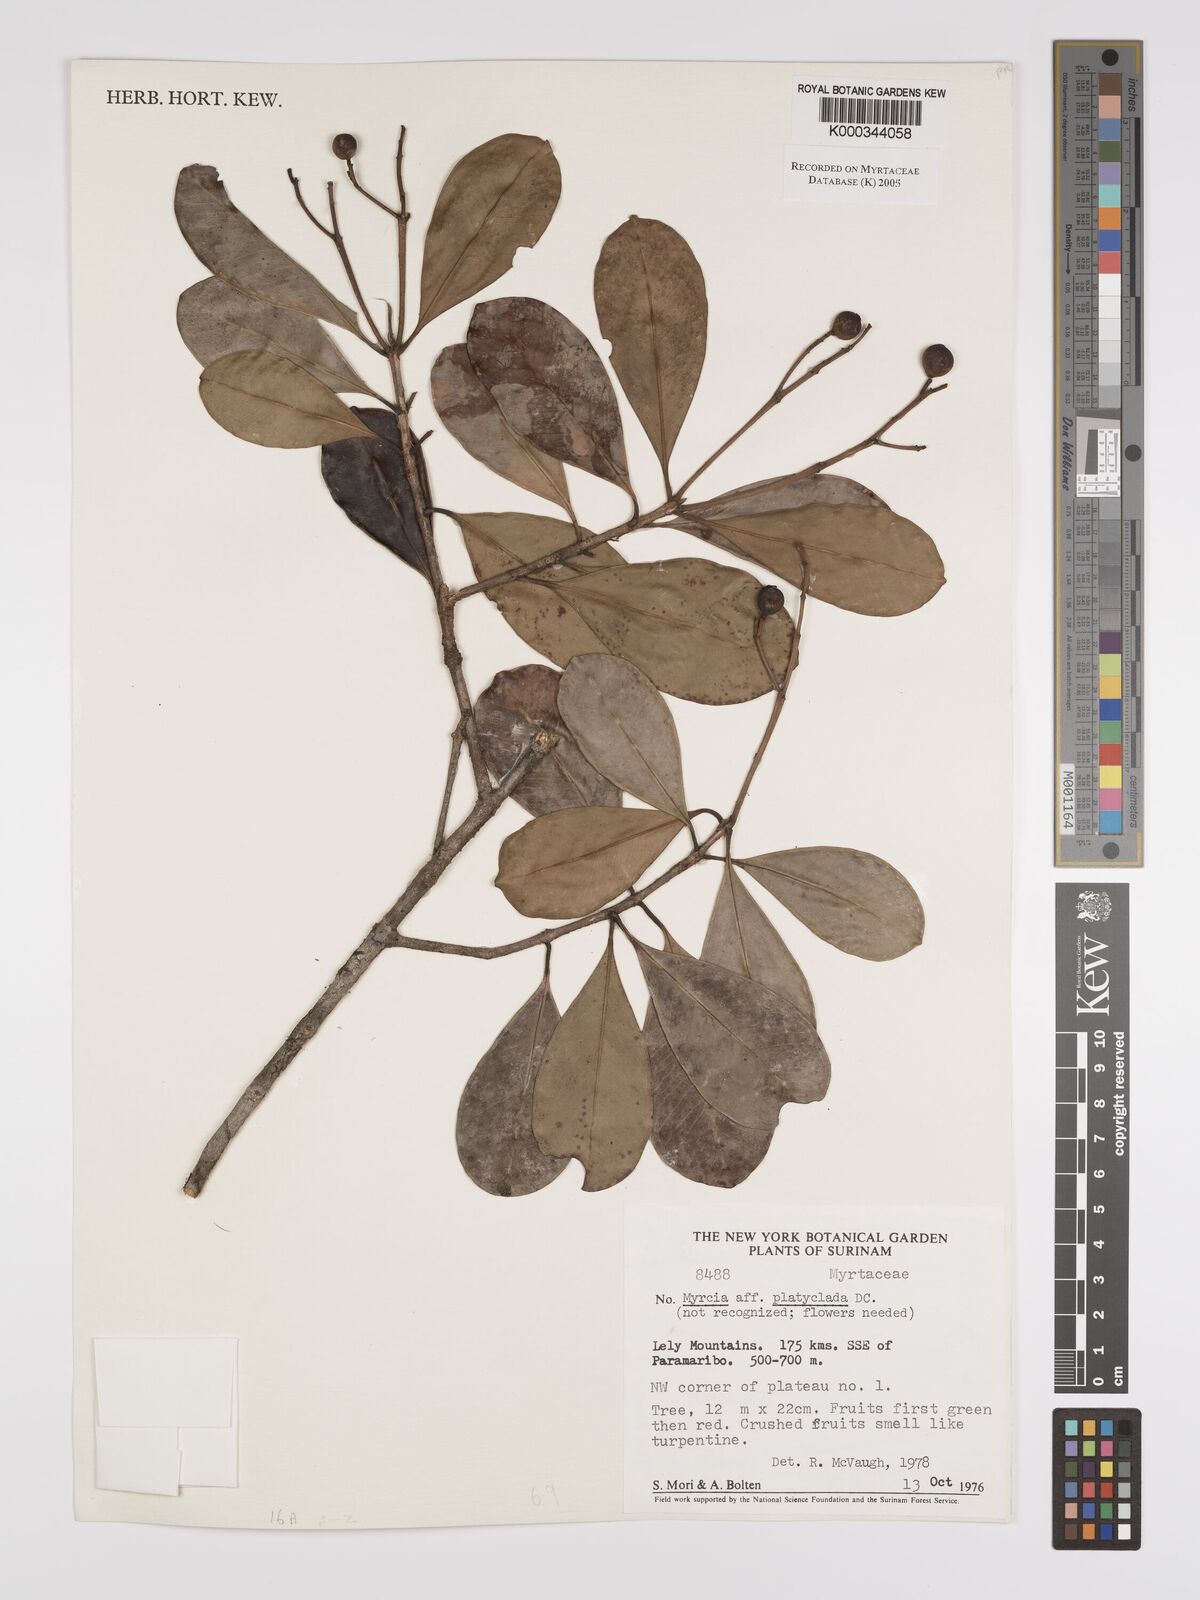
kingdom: Plantae
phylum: Tracheophyta
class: Magnoliopsida
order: Myrtales
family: Myrtaceae
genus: Myrcia
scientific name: Myrcia platyclada
